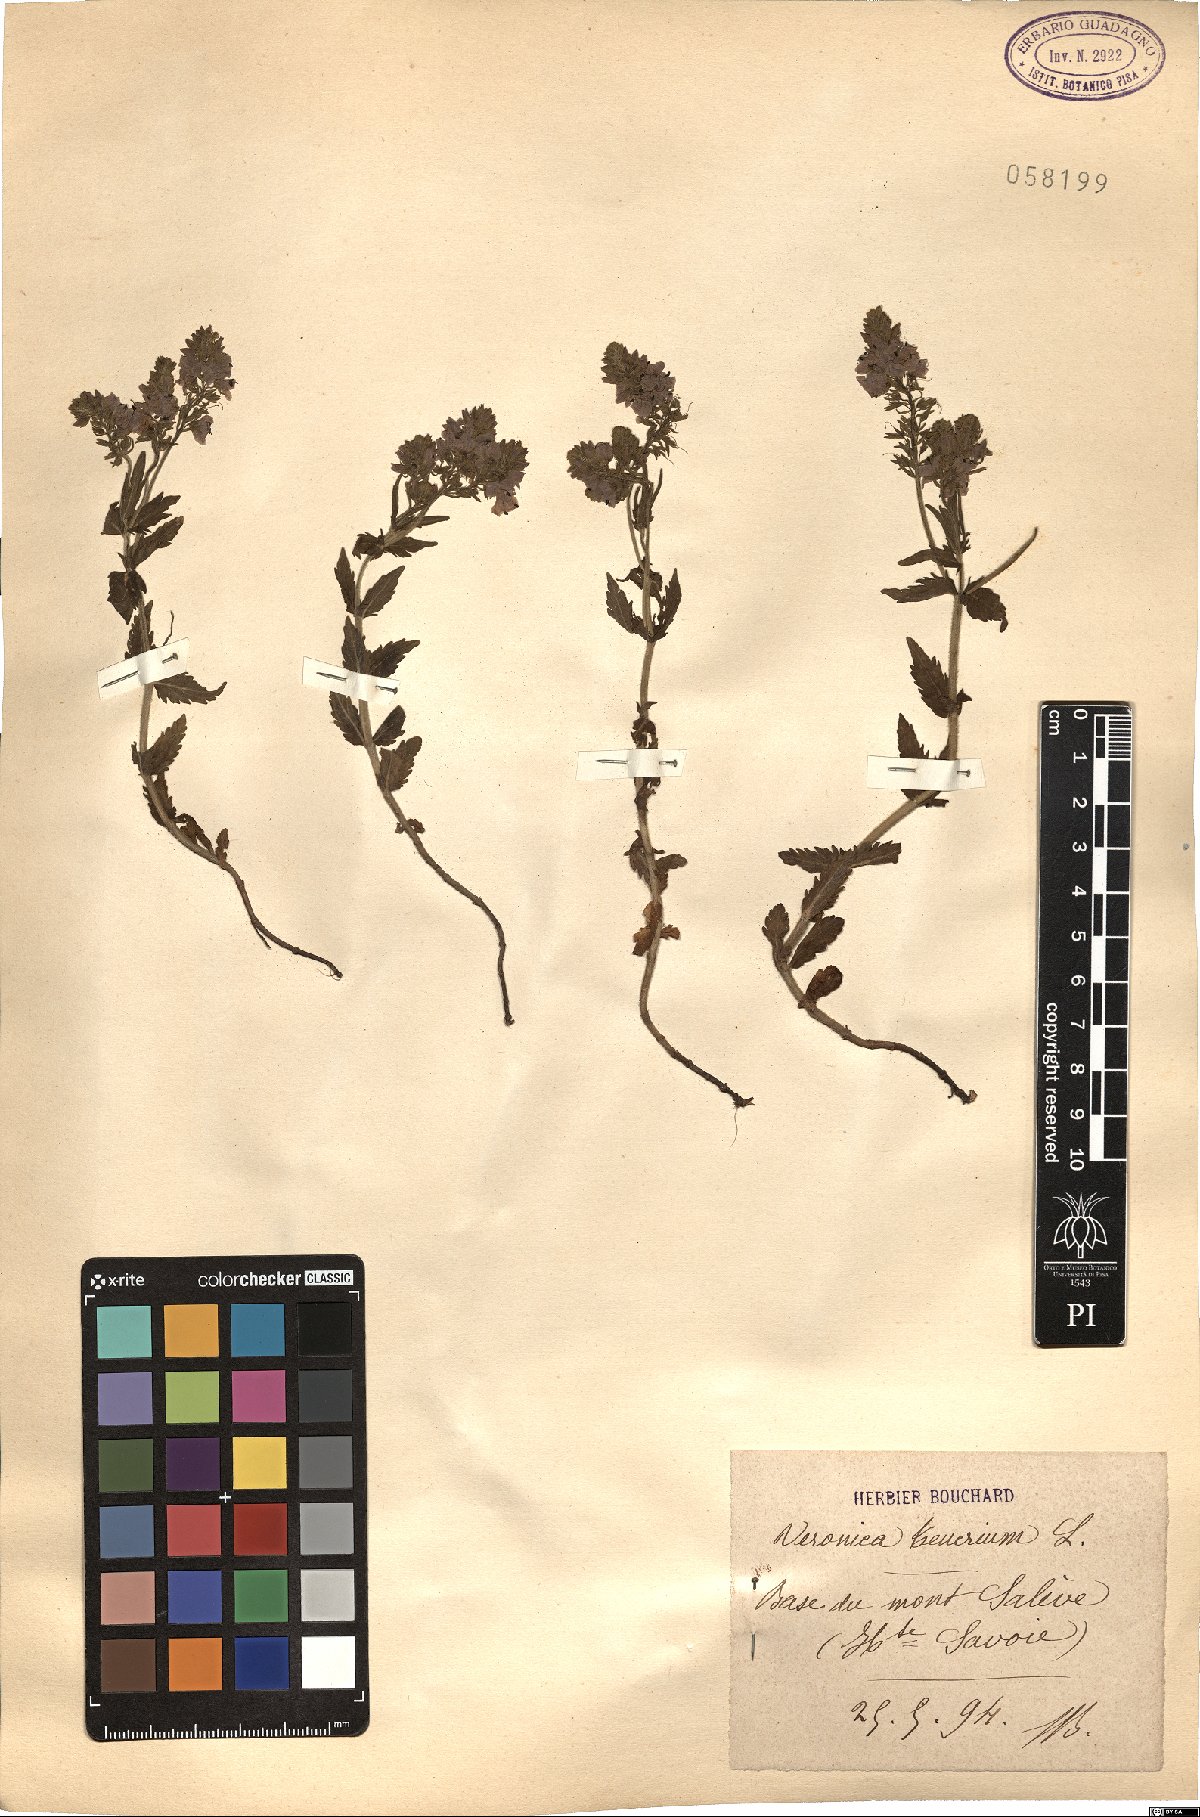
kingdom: Plantae
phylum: Tracheophyta
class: Magnoliopsida
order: Lamiales
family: Plantaginaceae
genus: Veronica
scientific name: Veronica teucrium
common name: Large speedwell
